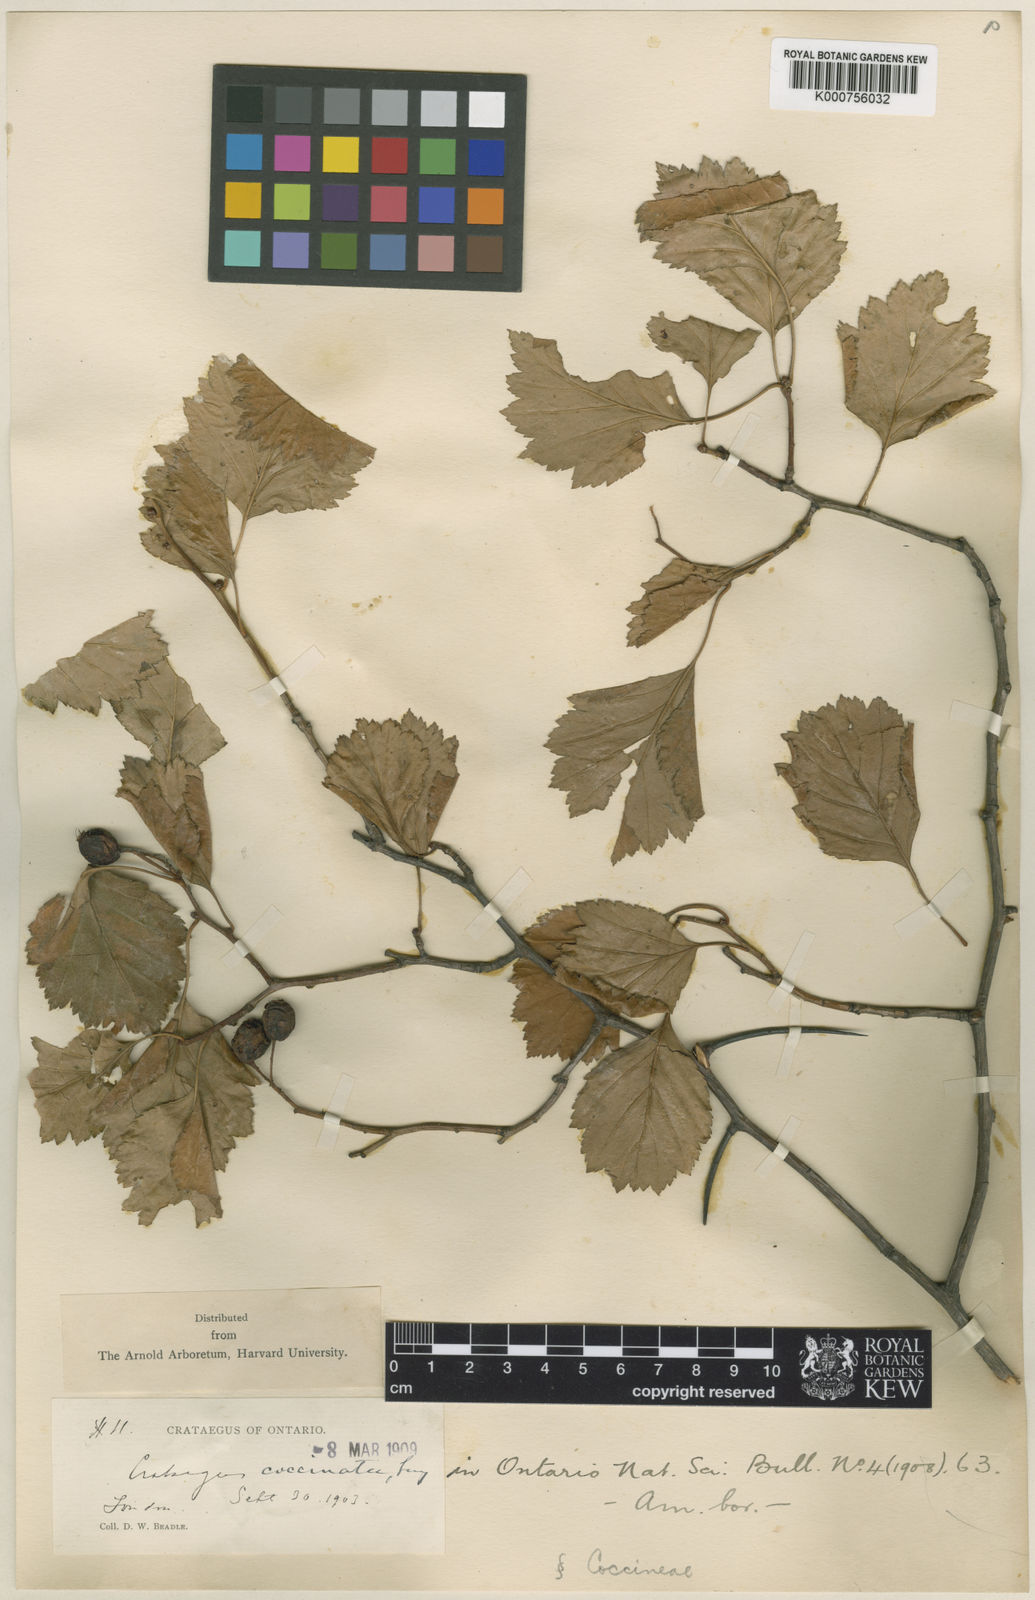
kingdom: Plantae
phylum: Tracheophyta
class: Magnoliopsida
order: Rosales
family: Rosaceae
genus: Crataegus
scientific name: Crataegus chrysocarpa
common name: Fire-berry hawthorn
